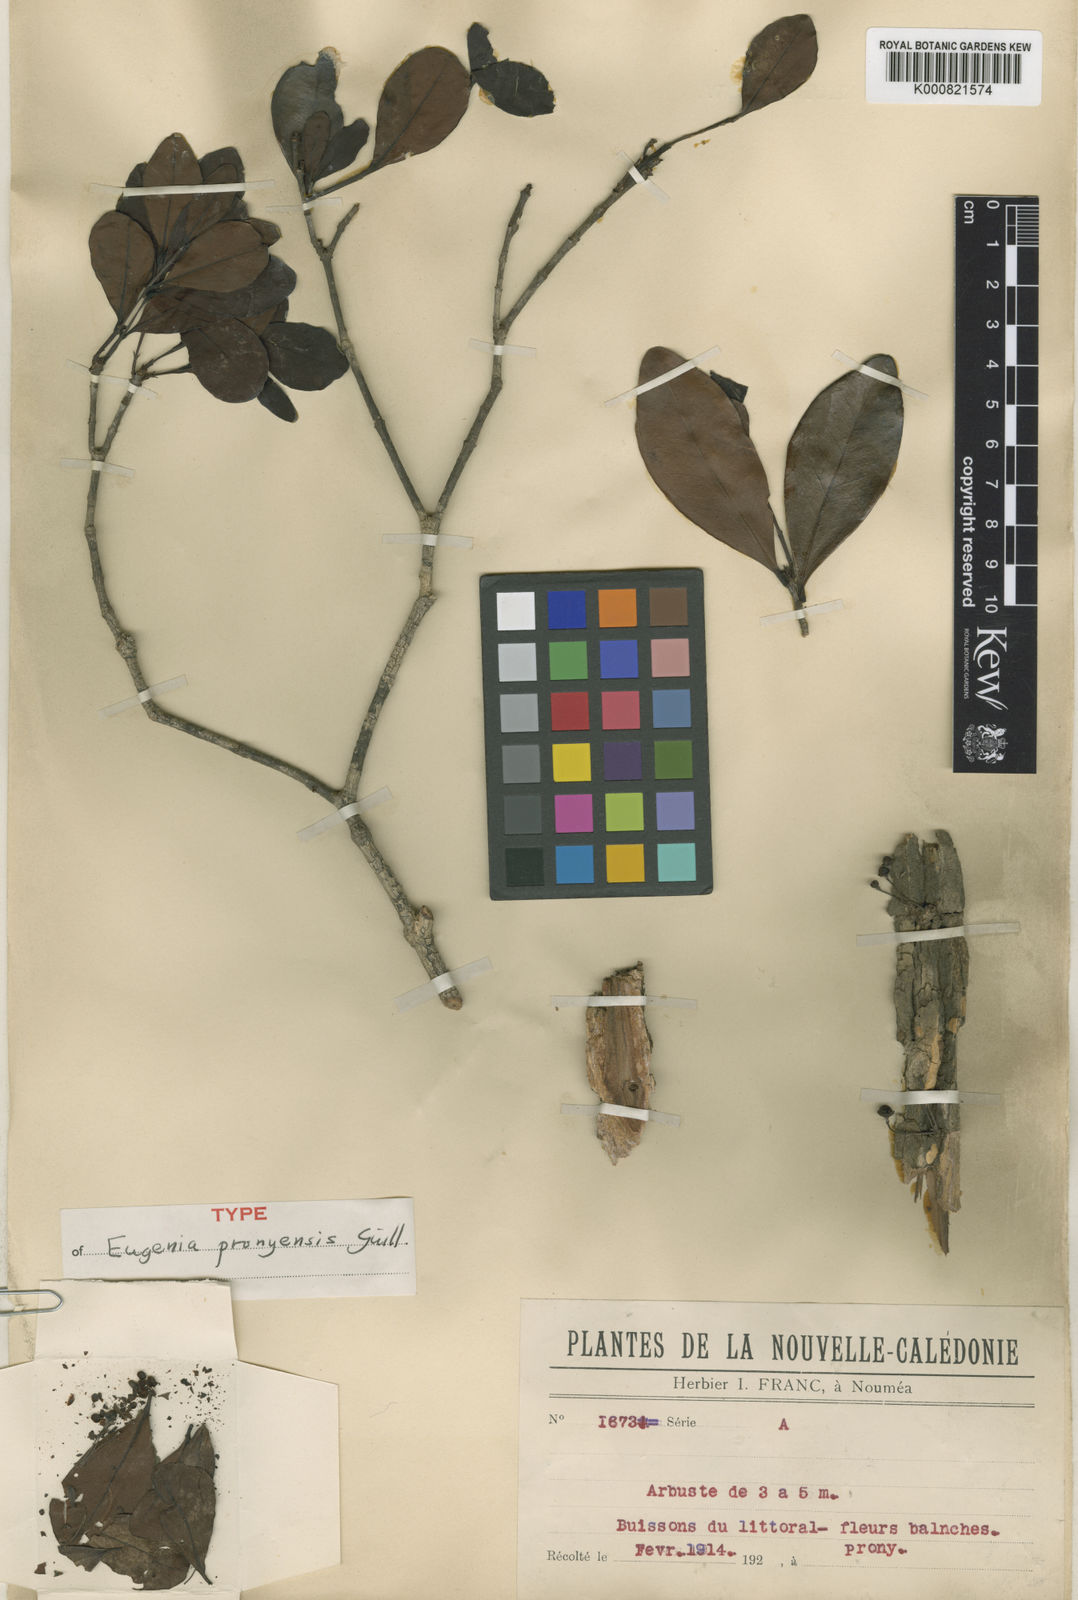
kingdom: Plantae
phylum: Tracheophyta
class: Magnoliopsida
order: Myrtales
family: Myrtaceae
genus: Eugenia
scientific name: Eugenia pronyensis
